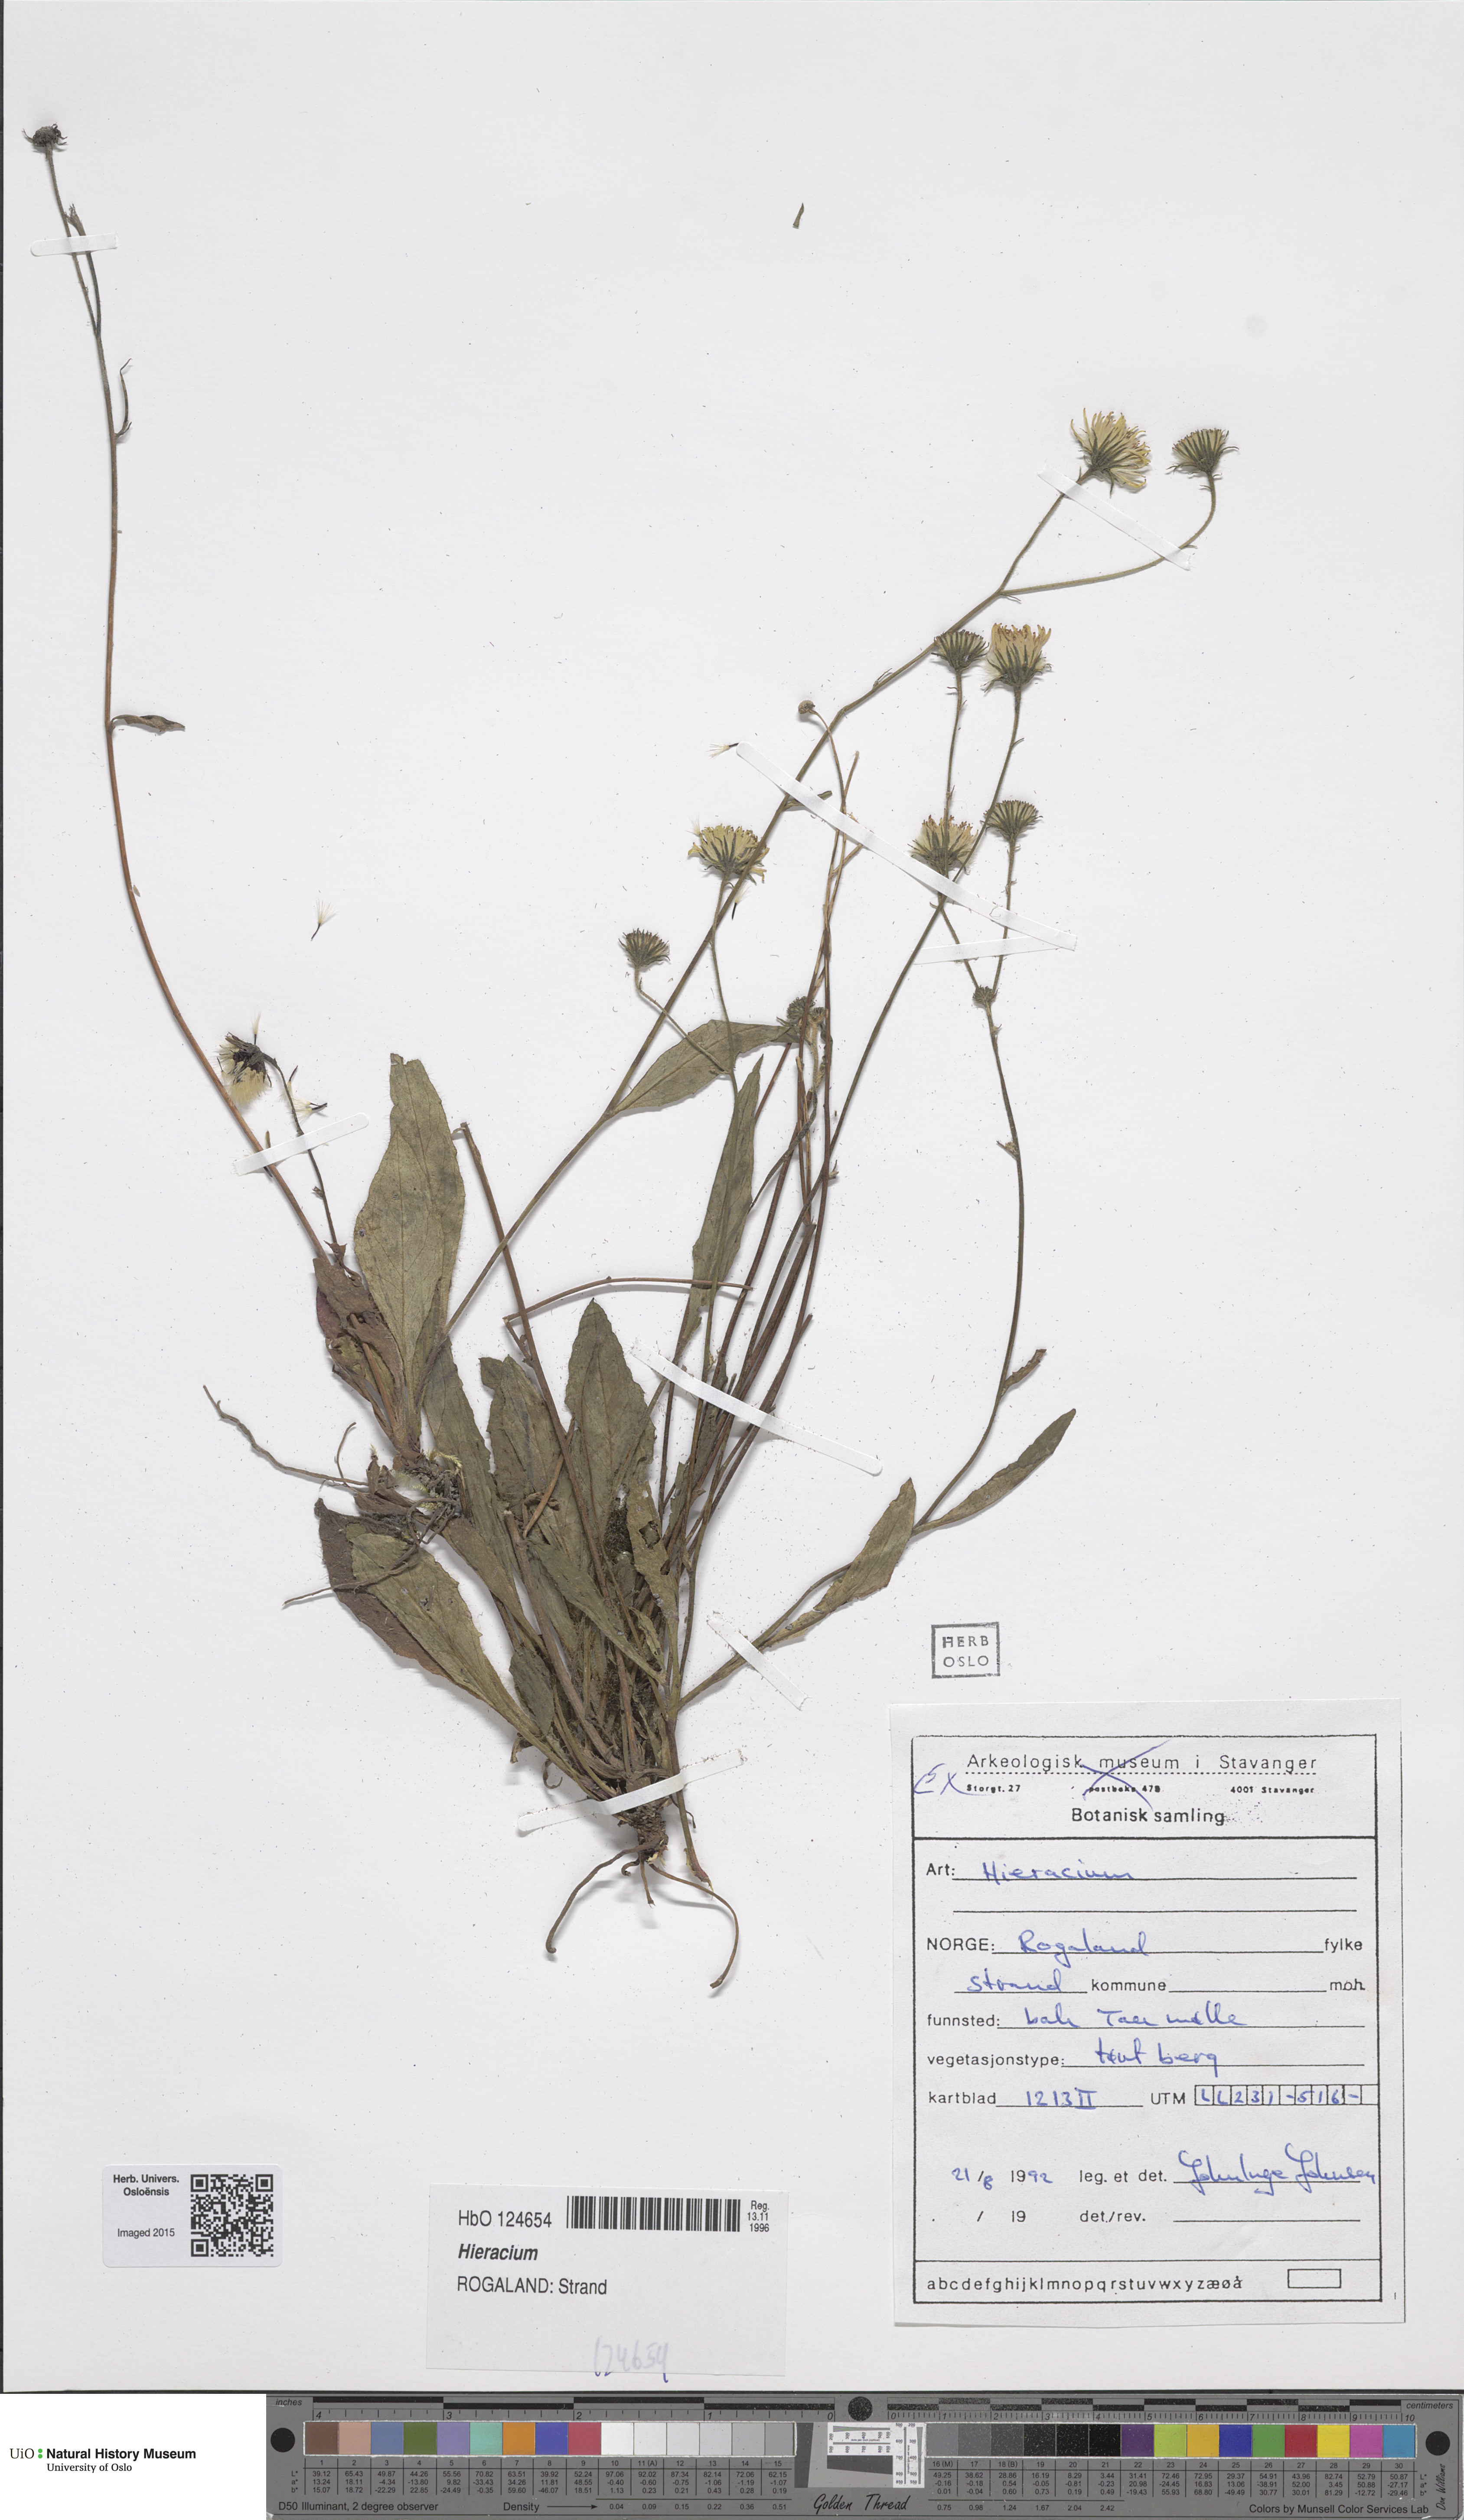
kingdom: Plantae
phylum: Tracheophyta
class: Magnoliopsida
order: Asterales
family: Asteraceae
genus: Hieracium
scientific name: Hieracium
